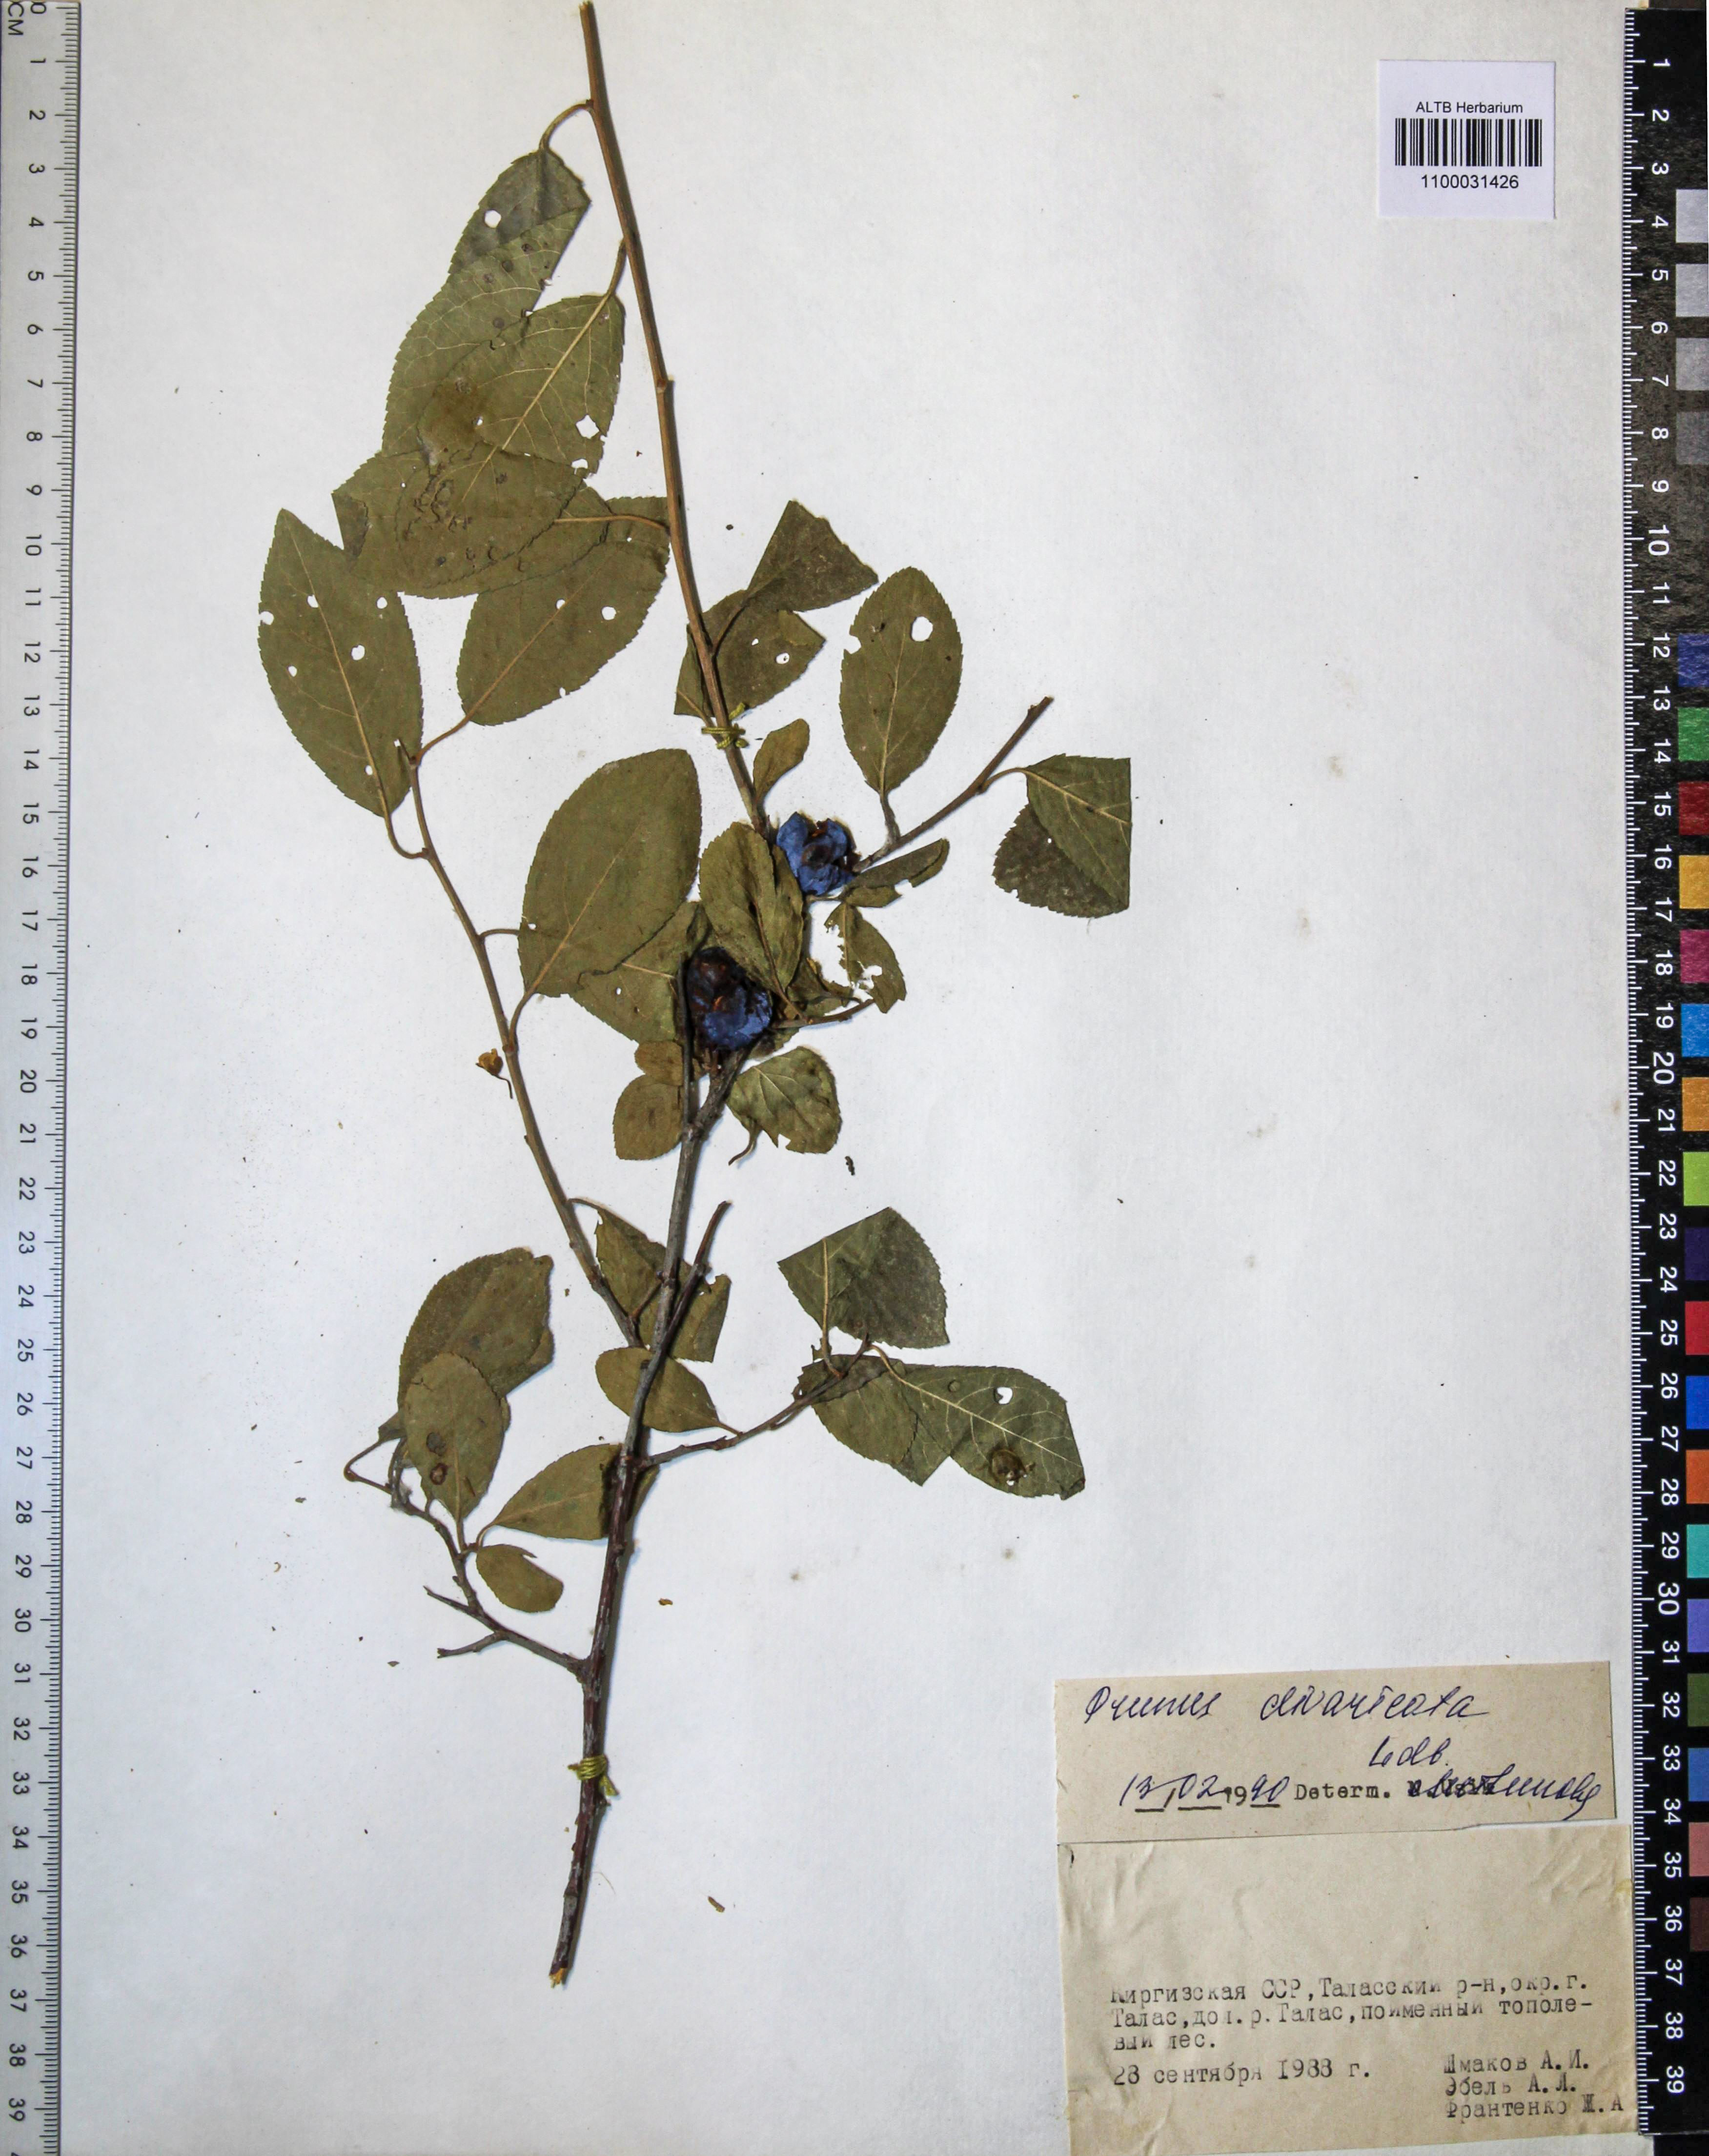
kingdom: Plantae
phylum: Tracheophyta
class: Magnoliopsida
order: Rosales
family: Rosaceae
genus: Prunus
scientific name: Prunus cerasifera
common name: Cherry plum
